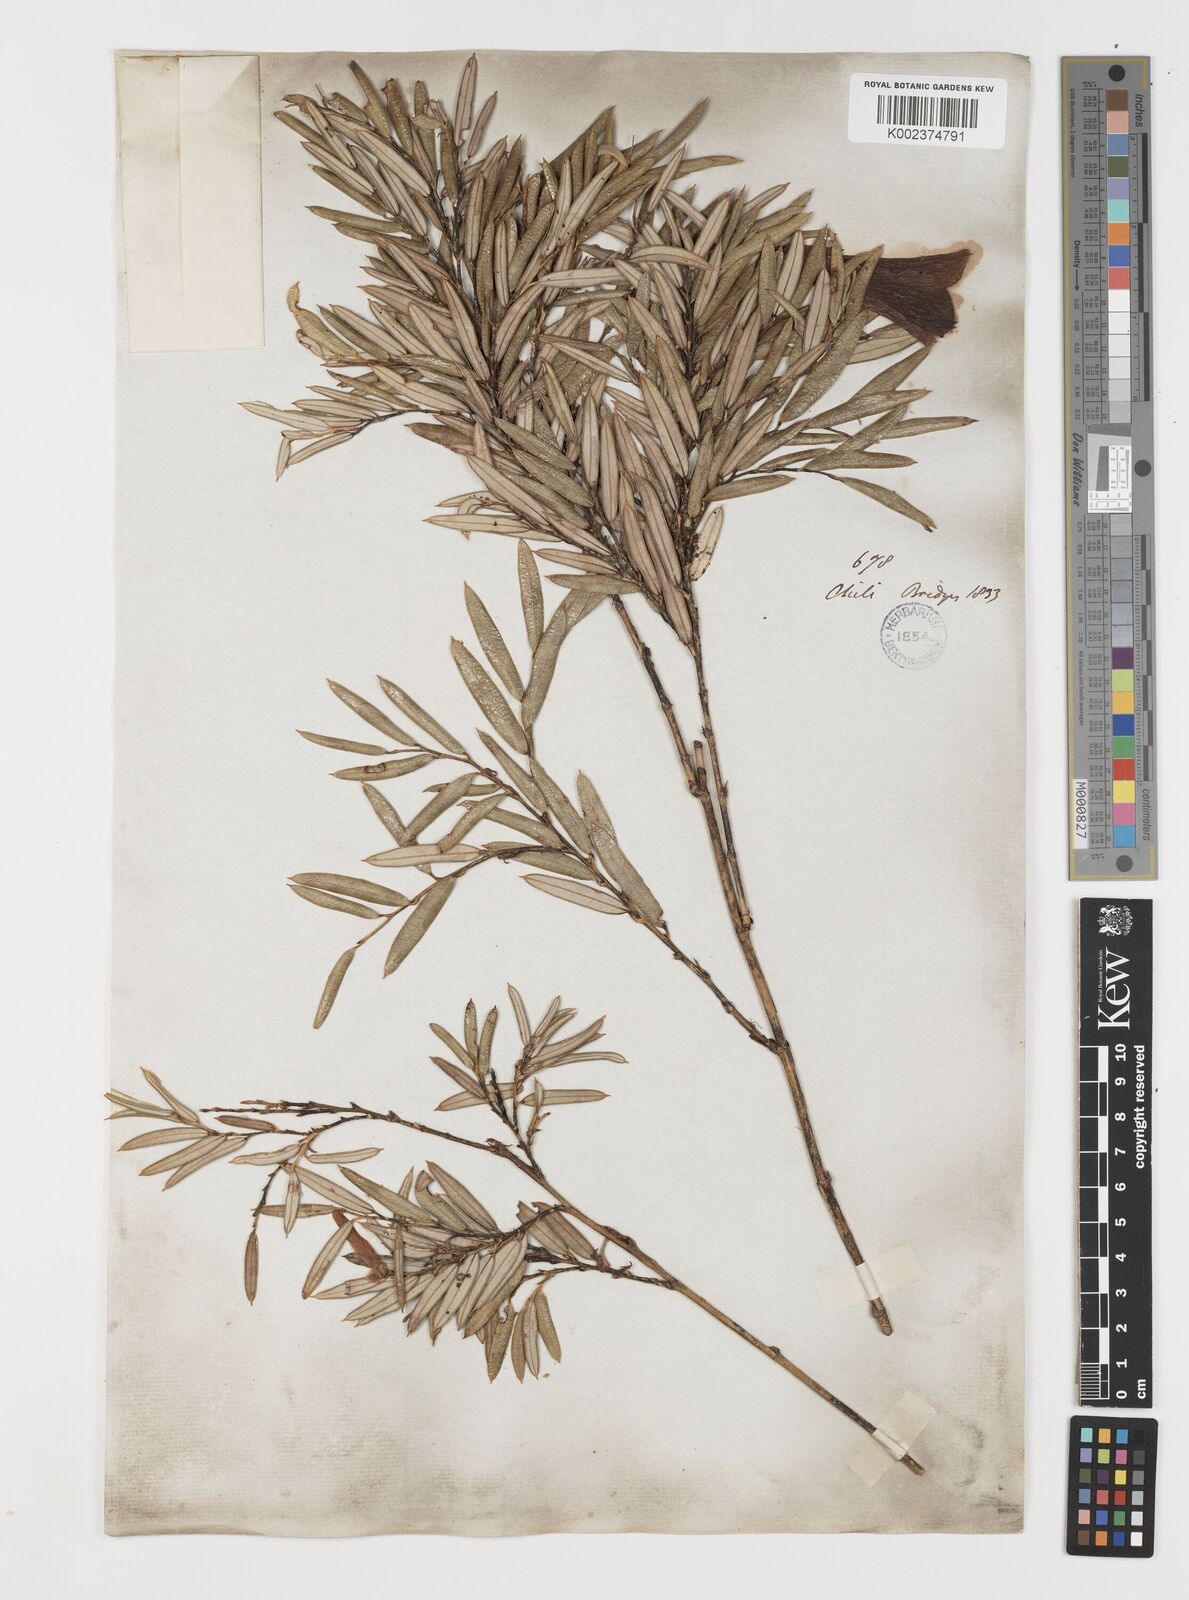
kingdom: Plantae
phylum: Tracheophyta
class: Liliopsida
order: Liliales
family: Philesiaceae
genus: Philesia
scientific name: Philesia magellanica
